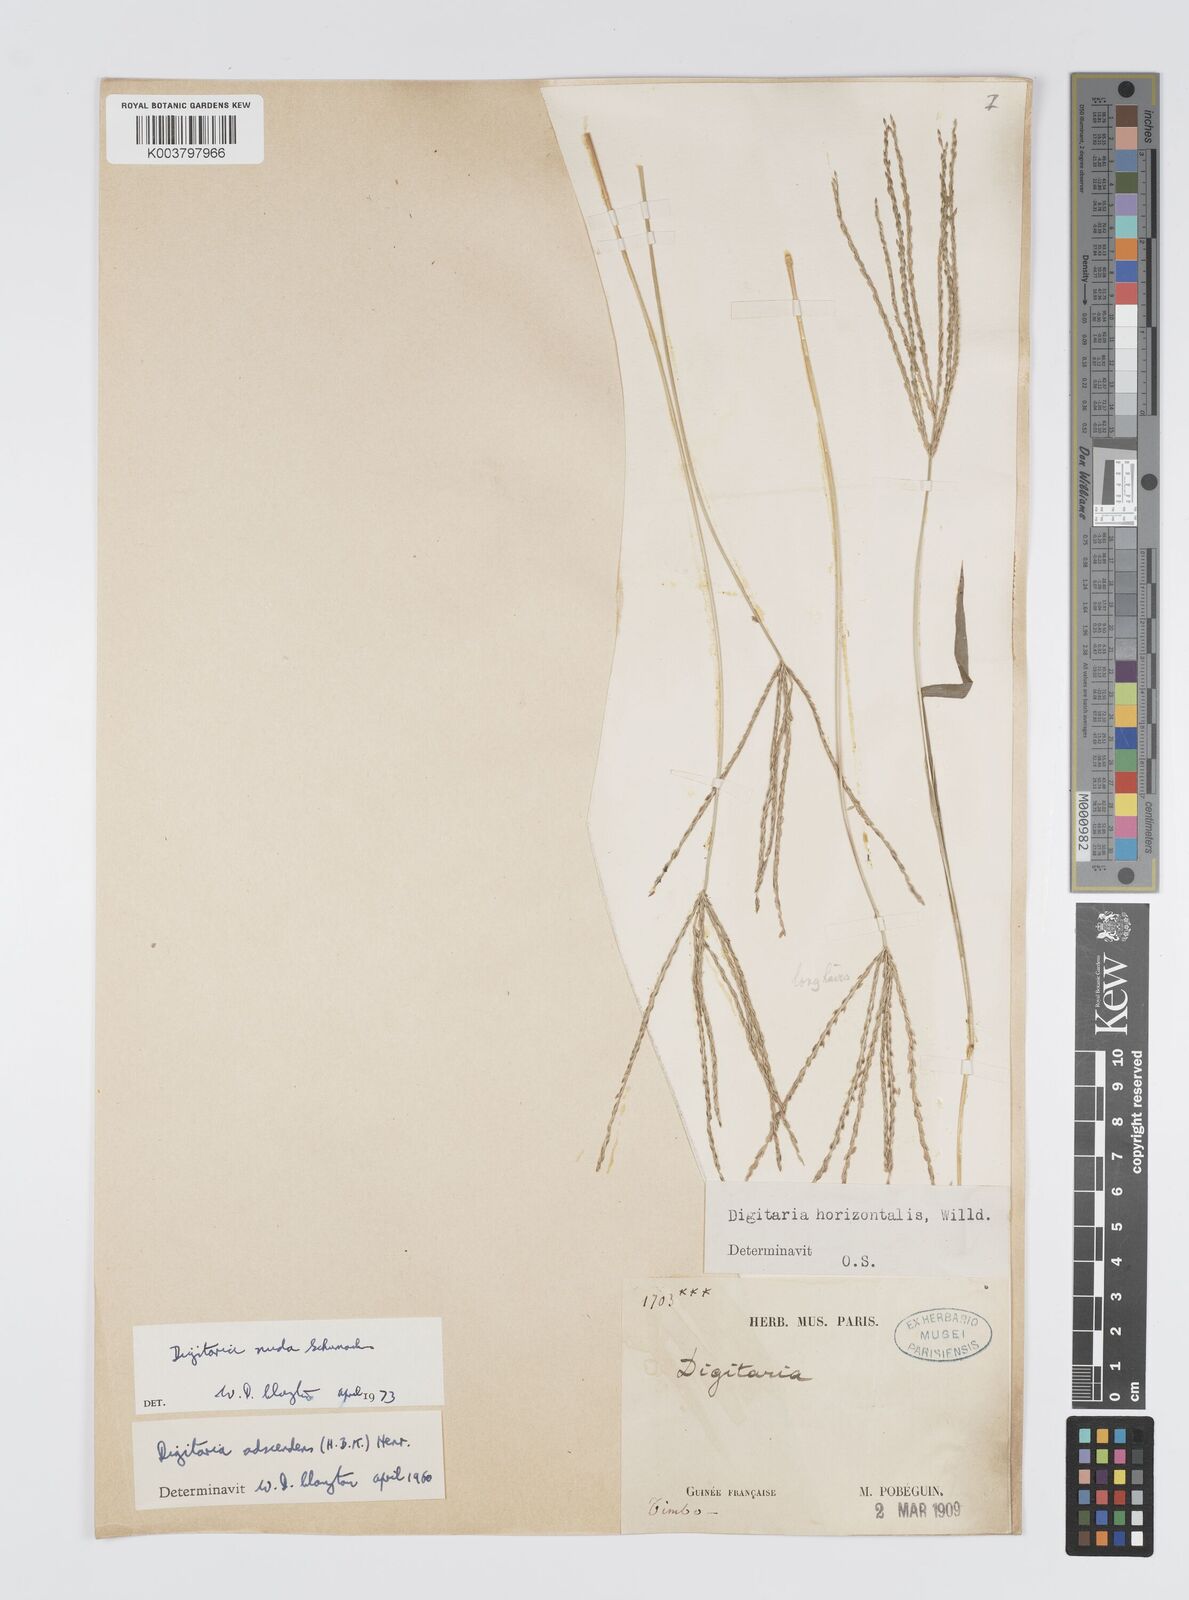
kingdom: Plantae
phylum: Tracheophyta
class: Liliopsida
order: Poales
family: Poaceae
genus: Digitaria
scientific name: Digitaria nuda
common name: Naked crabgrass
